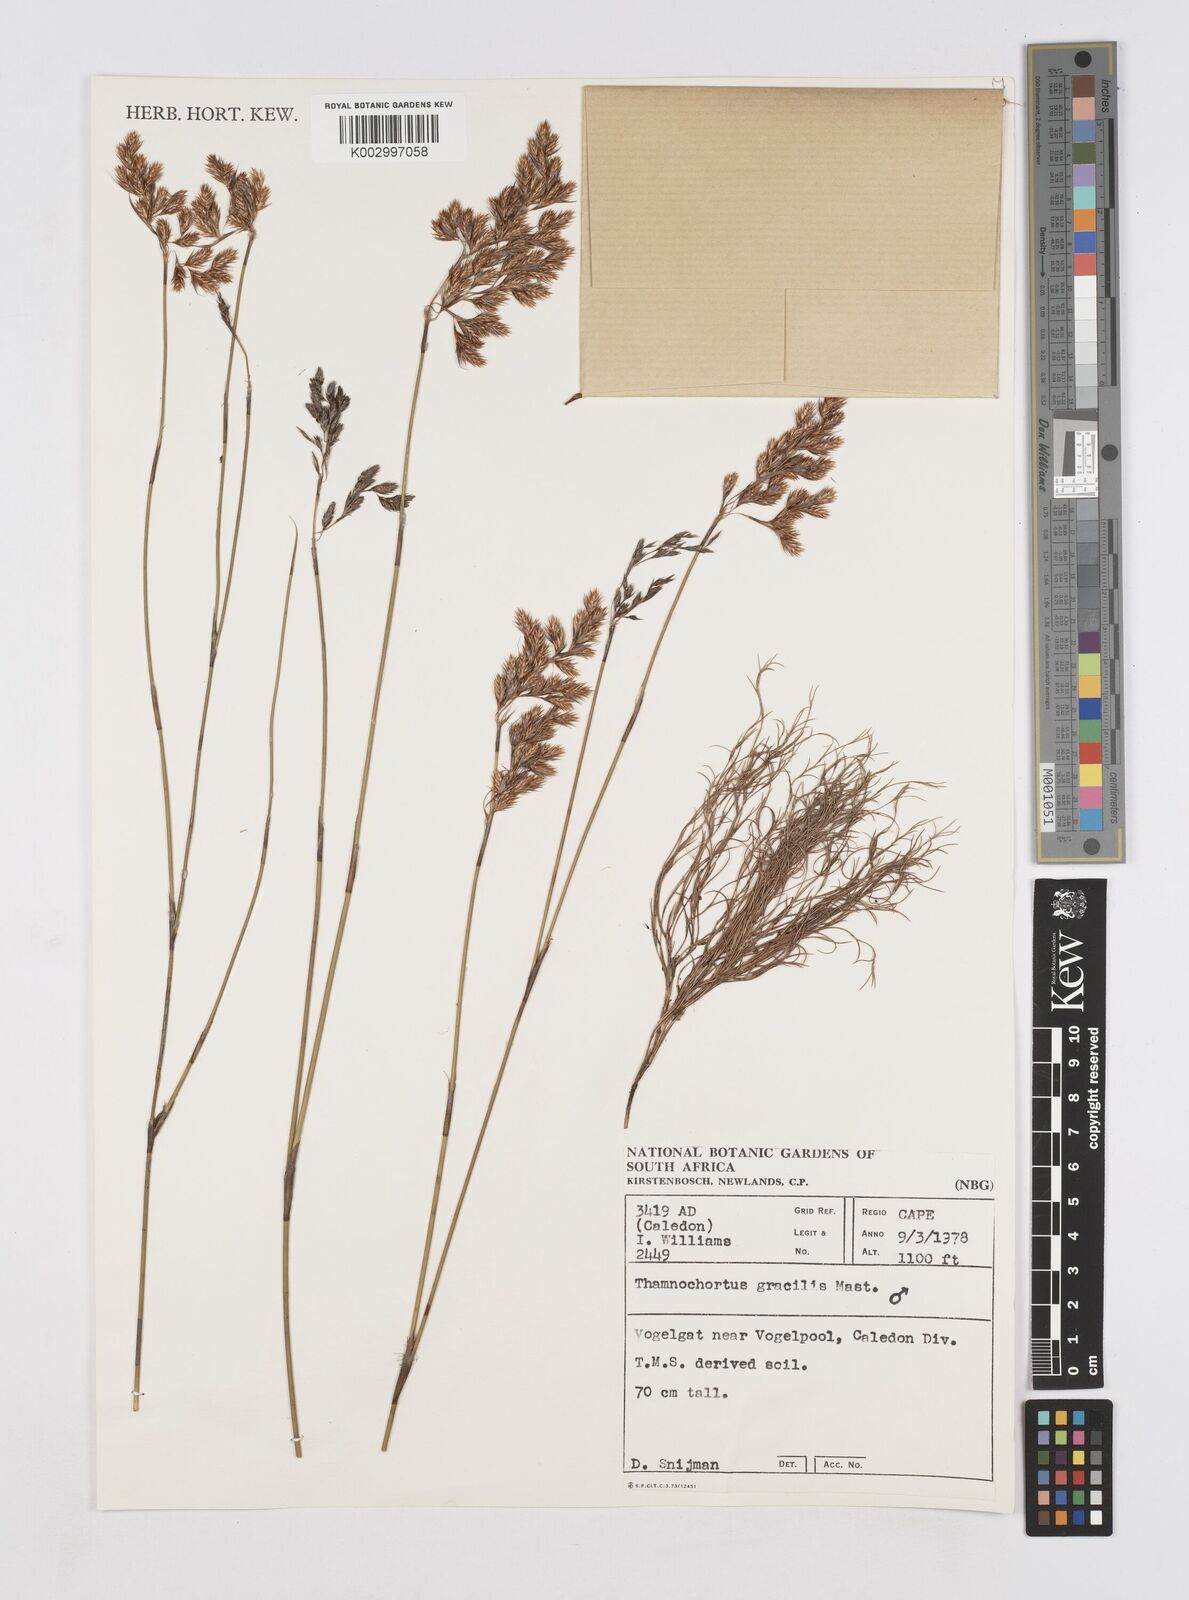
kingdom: Plantae
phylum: Tracheophyta
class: Liliopsida
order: Poales
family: Restionaceae
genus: Thamnochortus
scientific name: Thamnochortus gracilis
